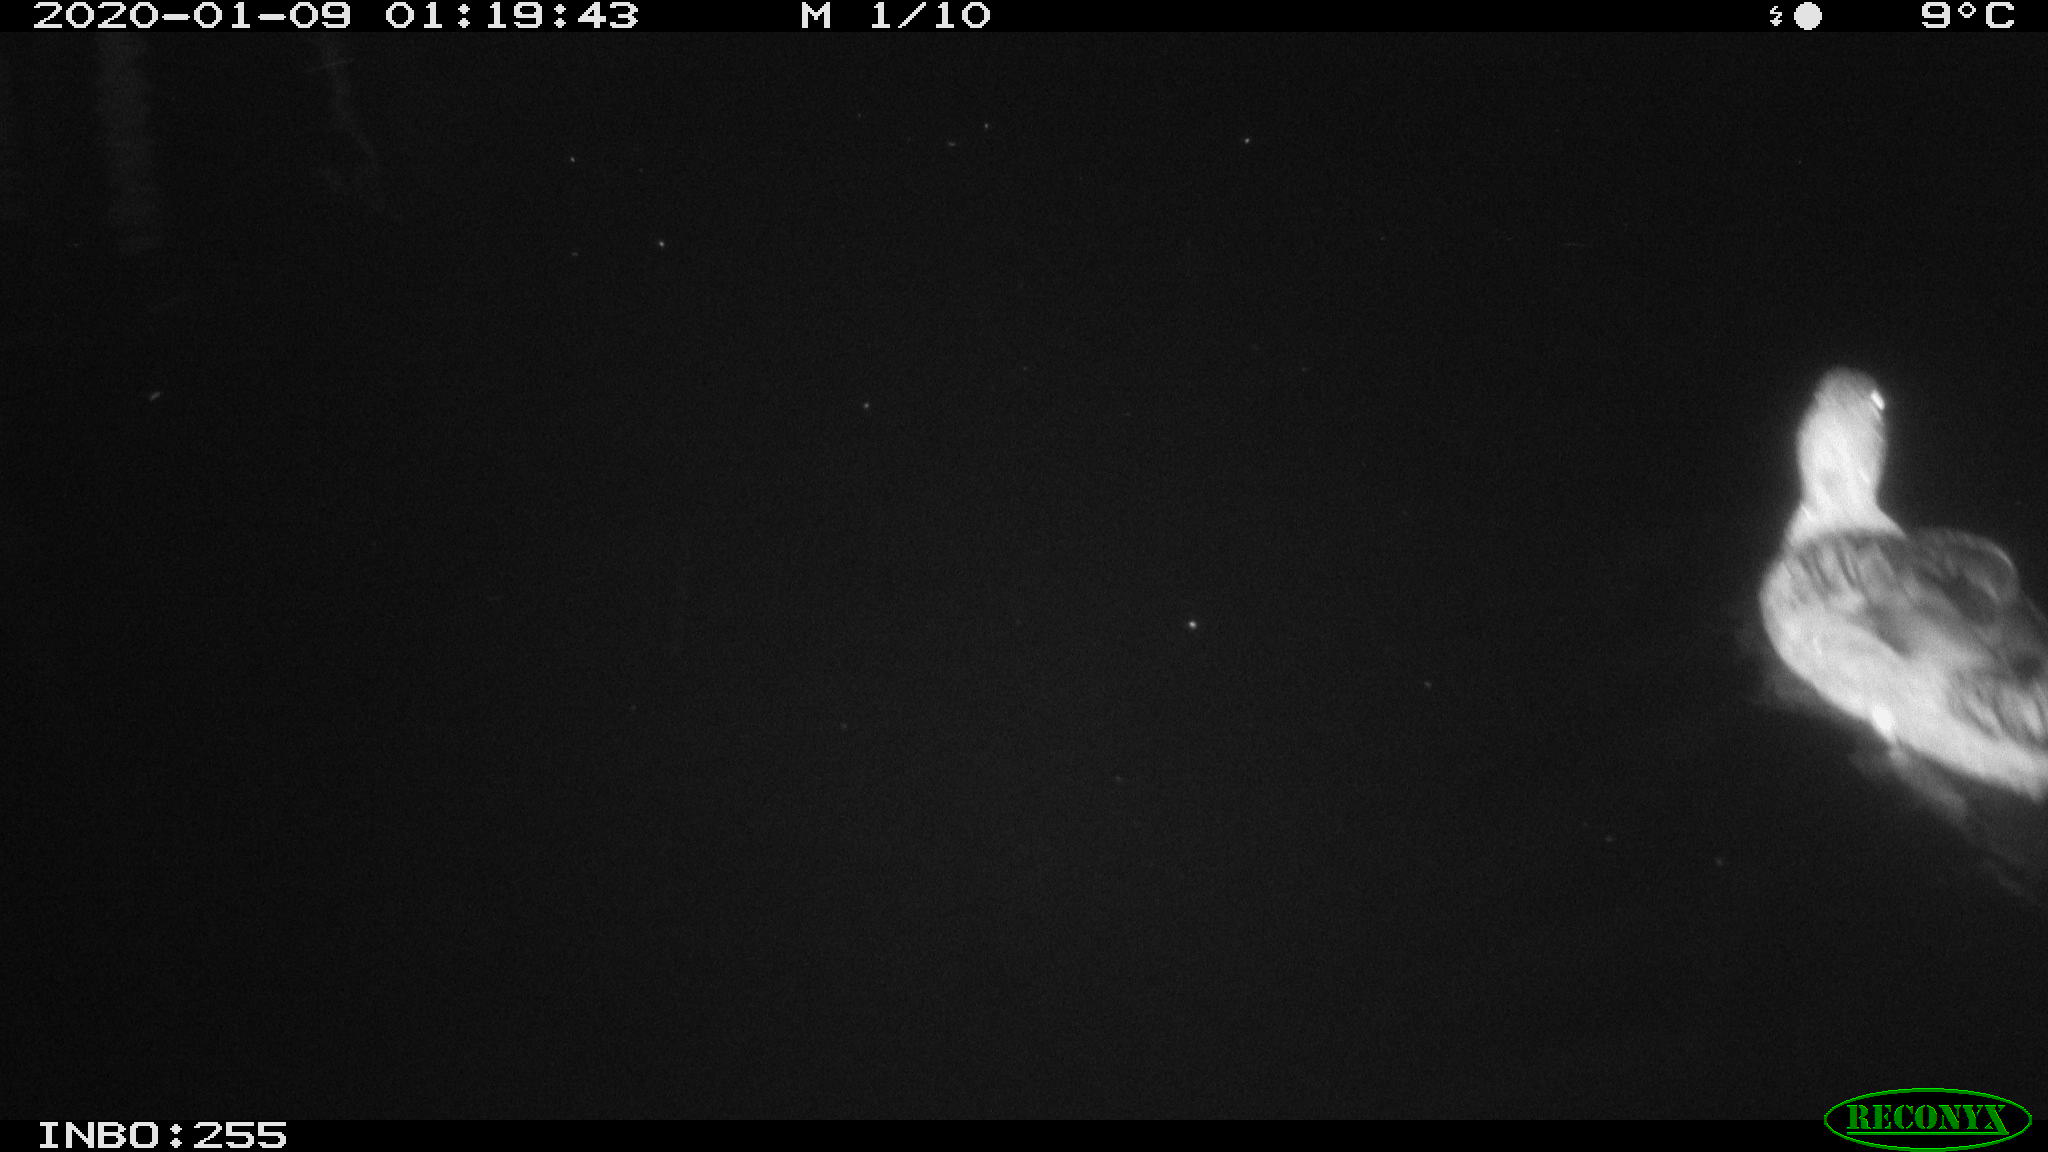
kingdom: Animalia
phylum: Chordata
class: Aves
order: Anseriformes
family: Anatidae
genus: Anas
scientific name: Anas platyrhynchos
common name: Mallard
